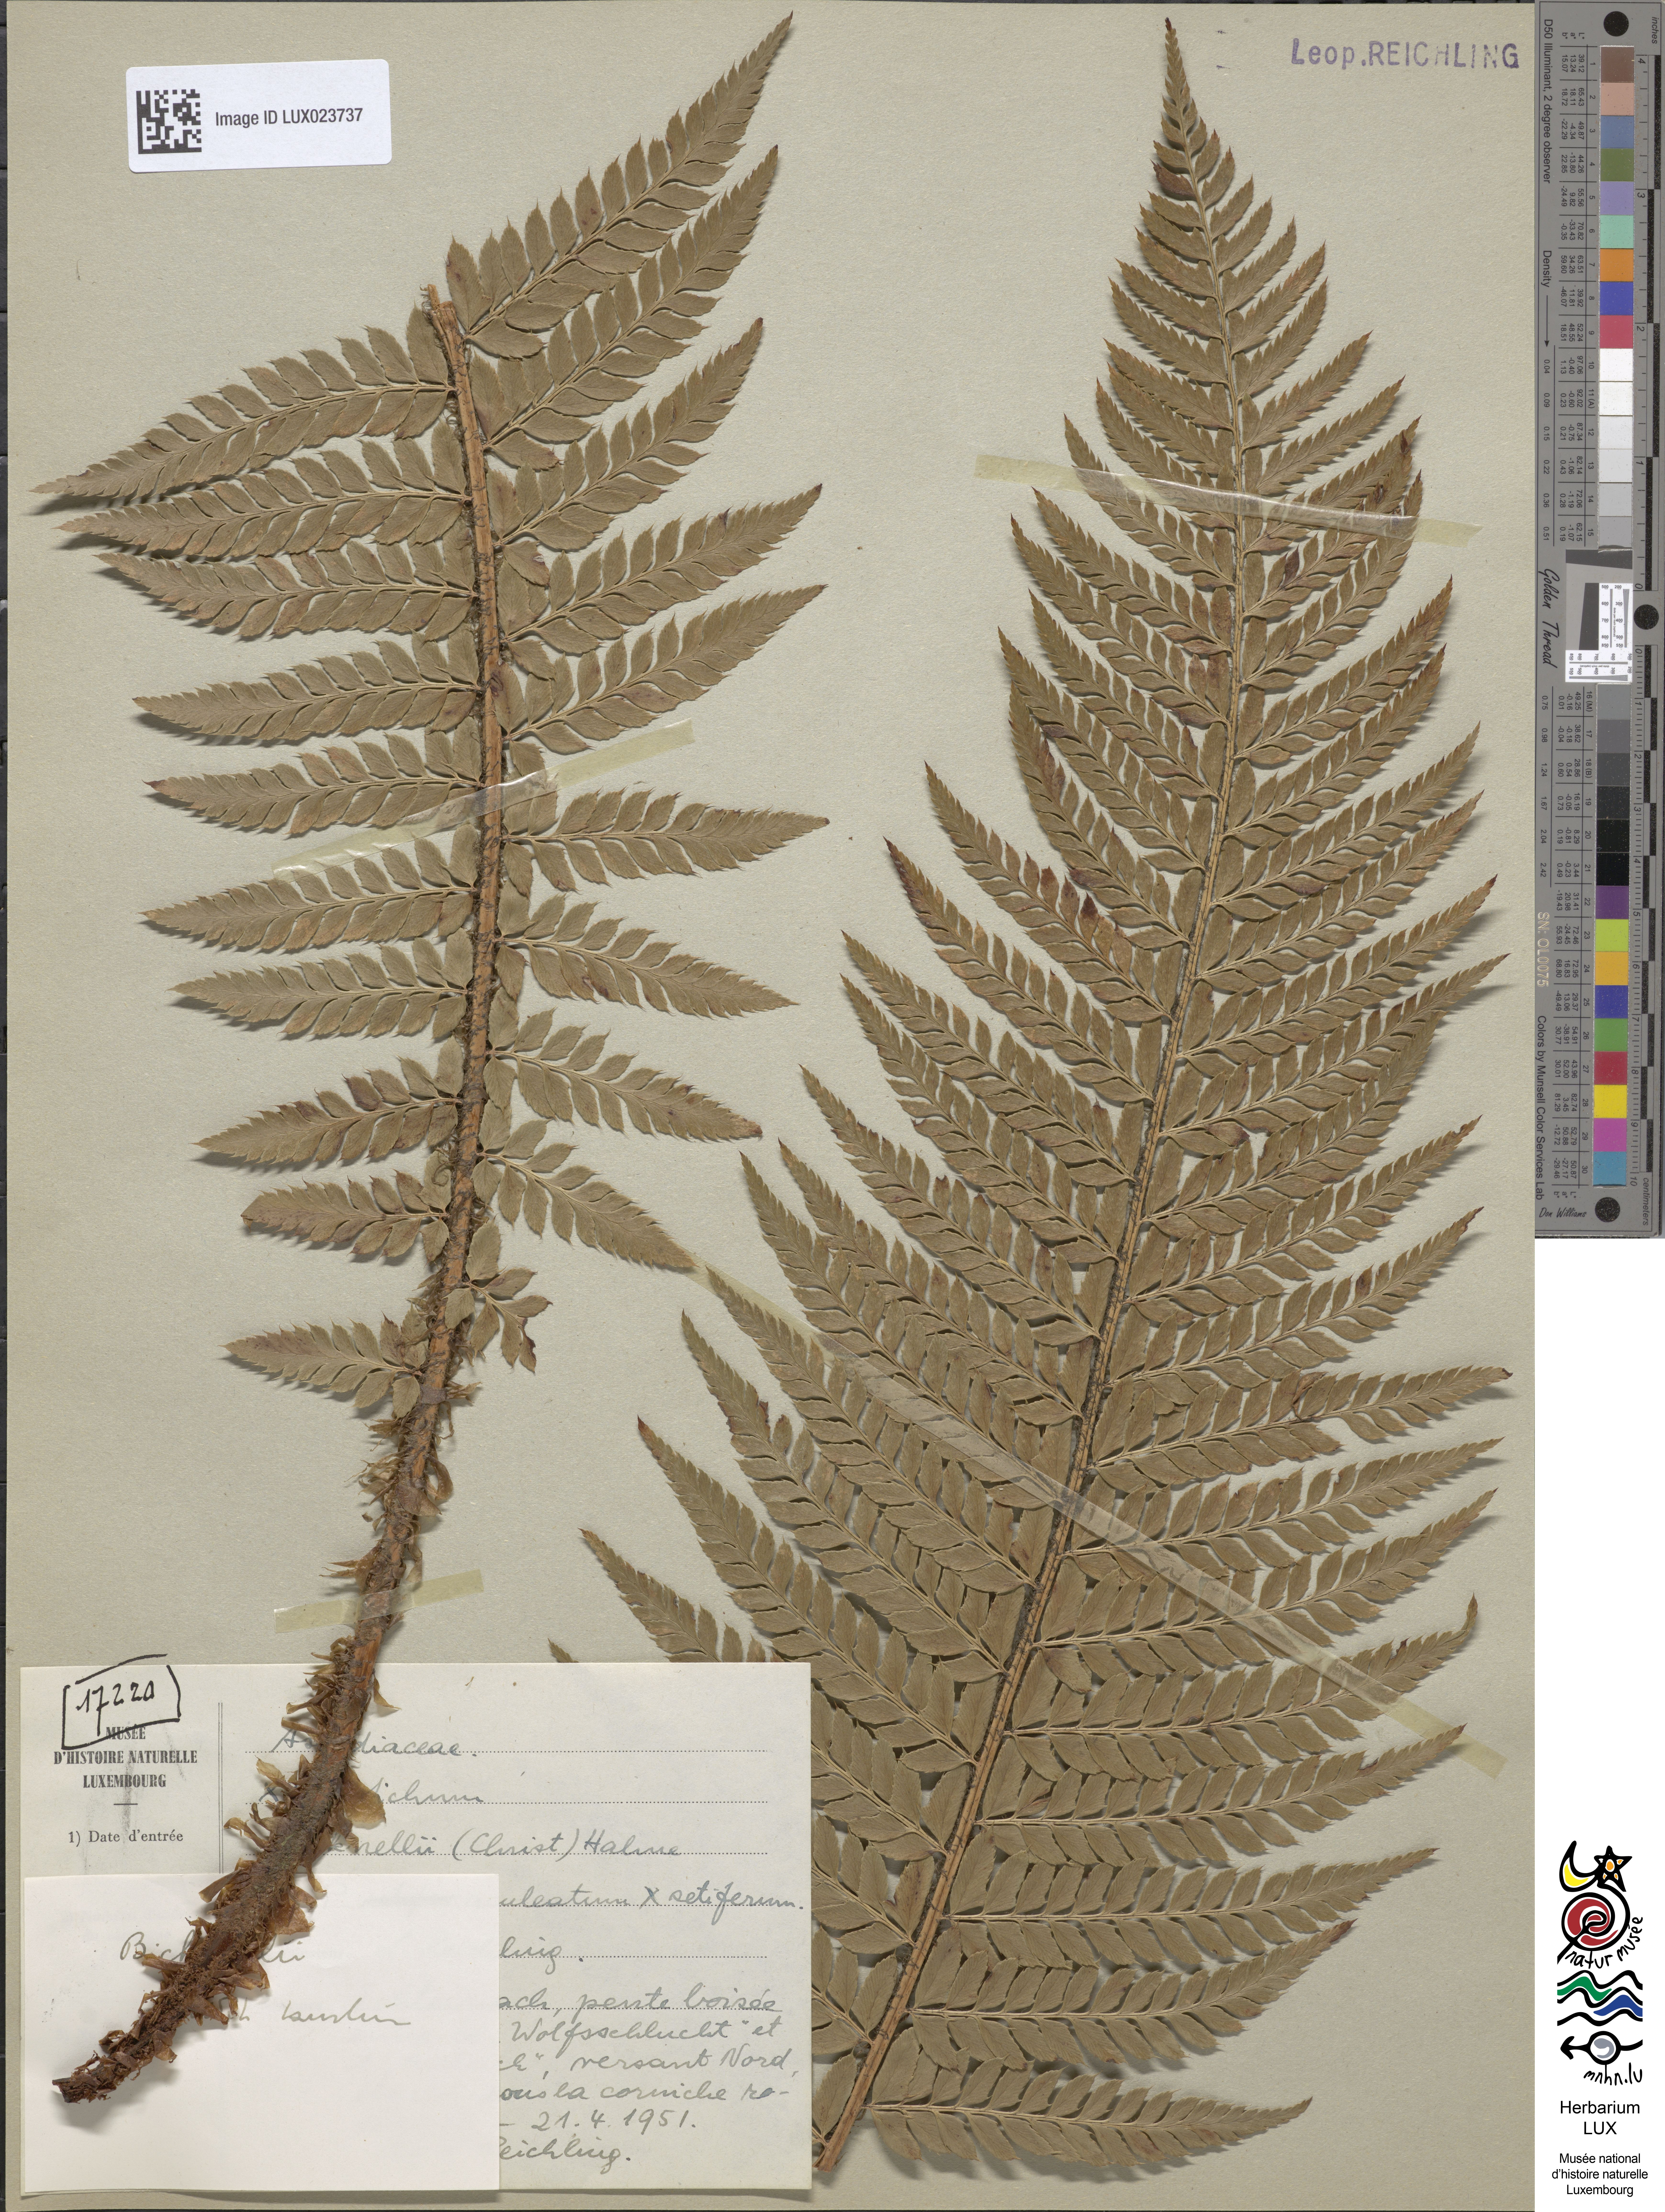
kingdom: Plantae
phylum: Tracheophyta
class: Polypodiopsida
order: Polypodiales
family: Dryopteridaceae
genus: Polystichum
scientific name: Polystichum
